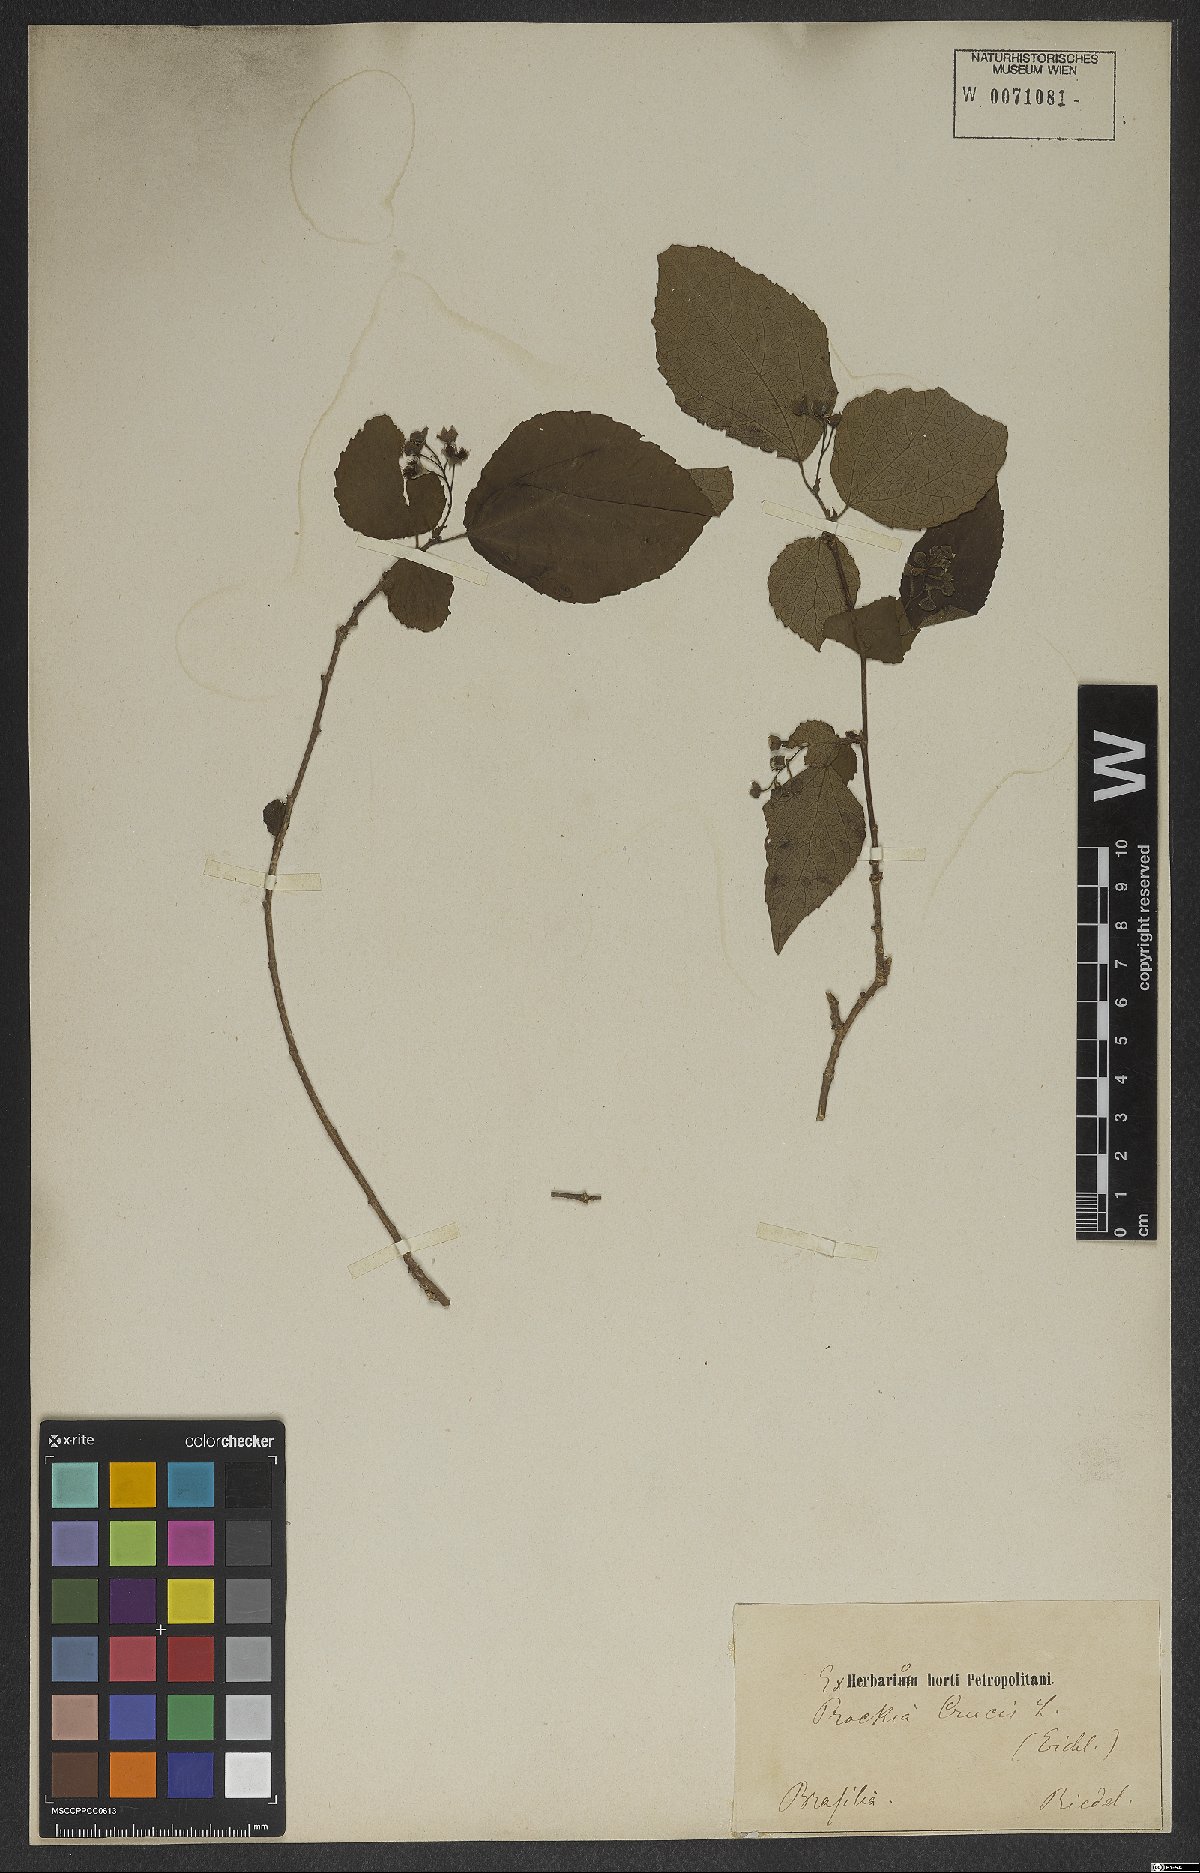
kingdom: Plantae
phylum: Tracheophyta
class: Magnoliopsida
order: Malpighiales
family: Salicaceae
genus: Prockia
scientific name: Prockia crucis
